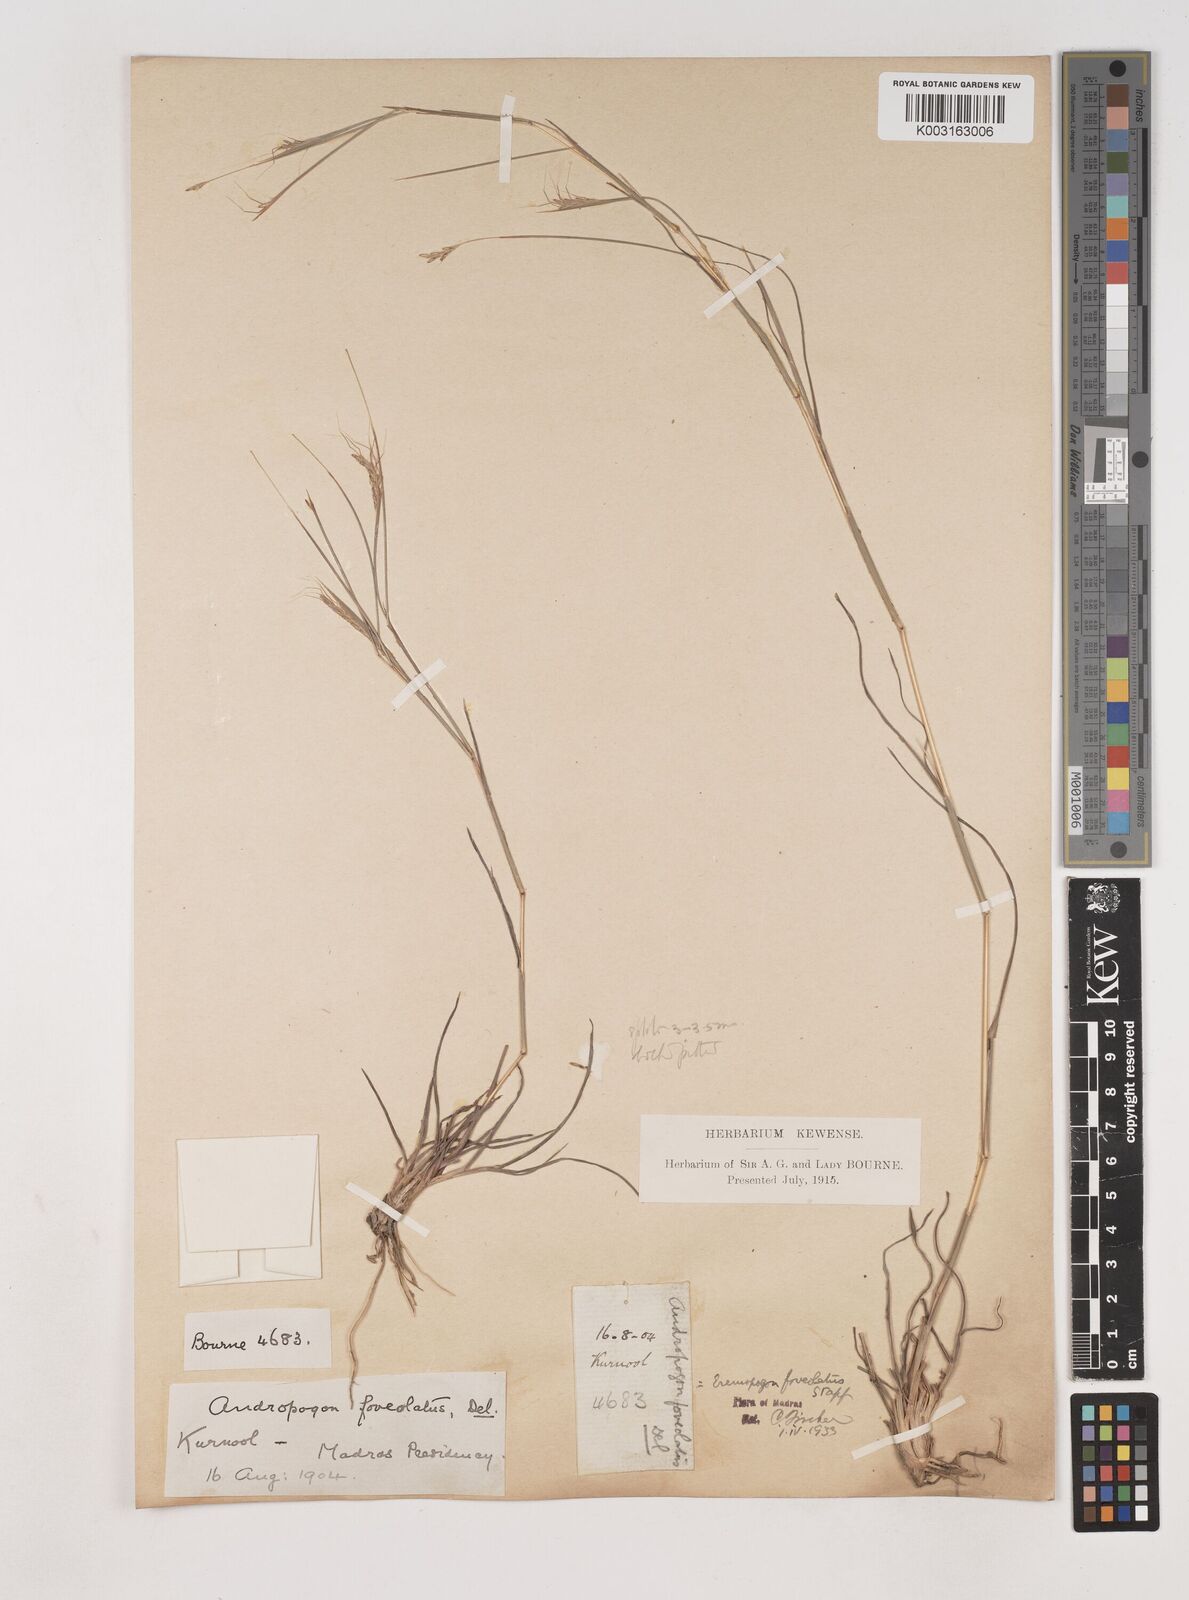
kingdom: Plantae
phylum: Tracheophyta
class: Liliopsida
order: Poales
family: Poaceae
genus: Dichanthium
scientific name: Dichanthium foveolatum
